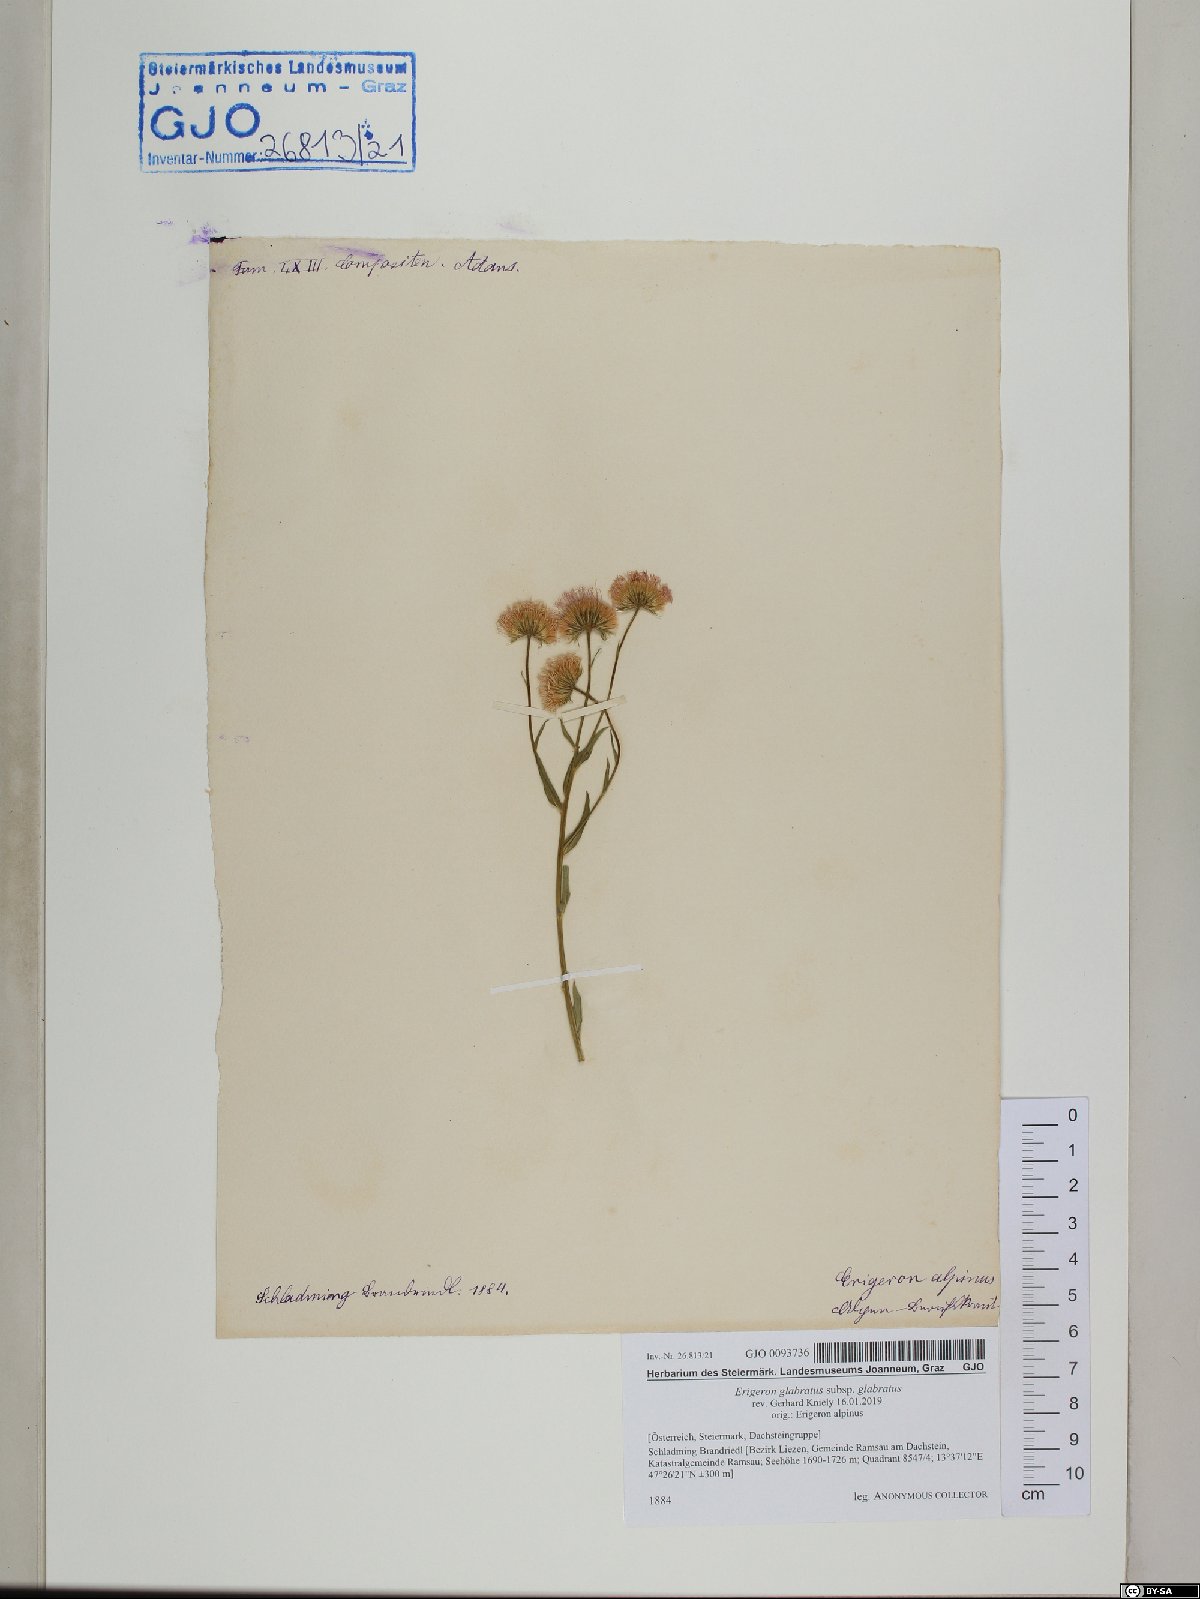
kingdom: Plantae
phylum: Tracheophyta
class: Magnoliopsida
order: Asterales
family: Asteraceae
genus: Erigeron
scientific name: Erigeron glabratus
